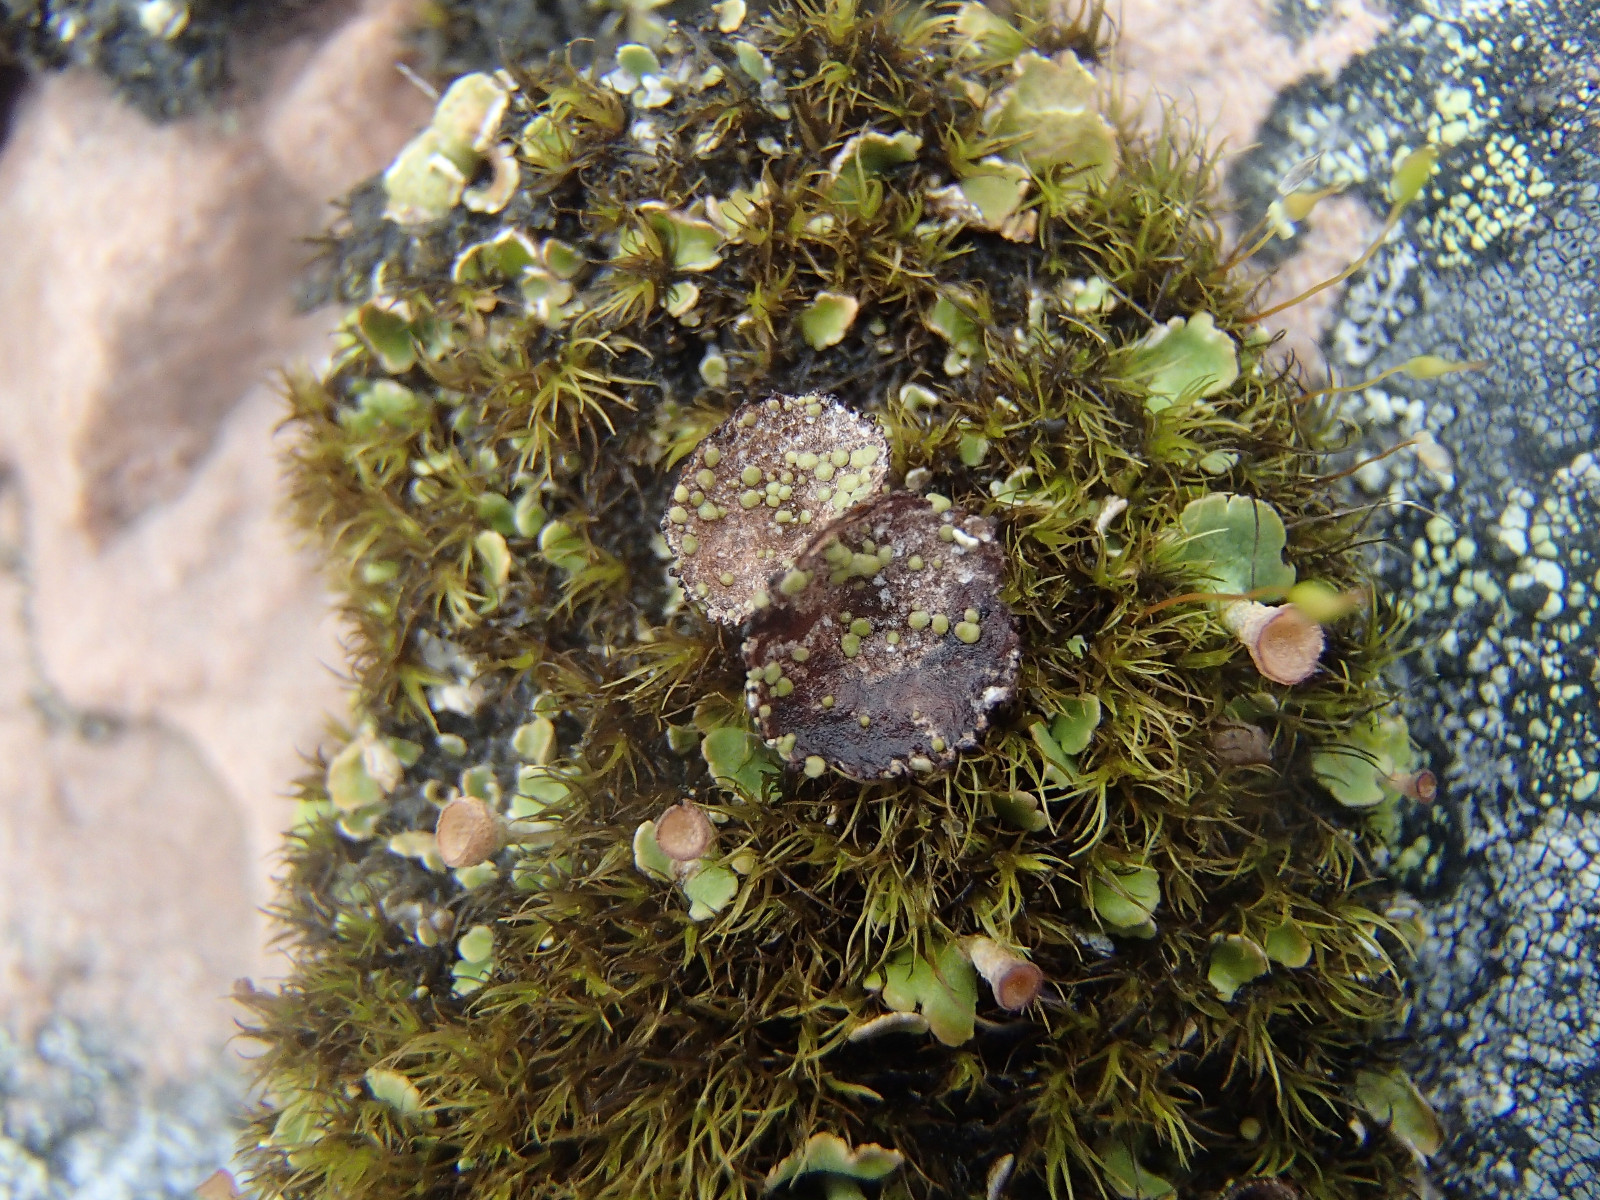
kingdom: Fungi
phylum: Ascomycota
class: Lecanoromycetes
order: Lecanorales
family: Cladoniaceae
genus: Cladonia
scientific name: Cladonia pyxidata
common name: tragt-bægerlav
